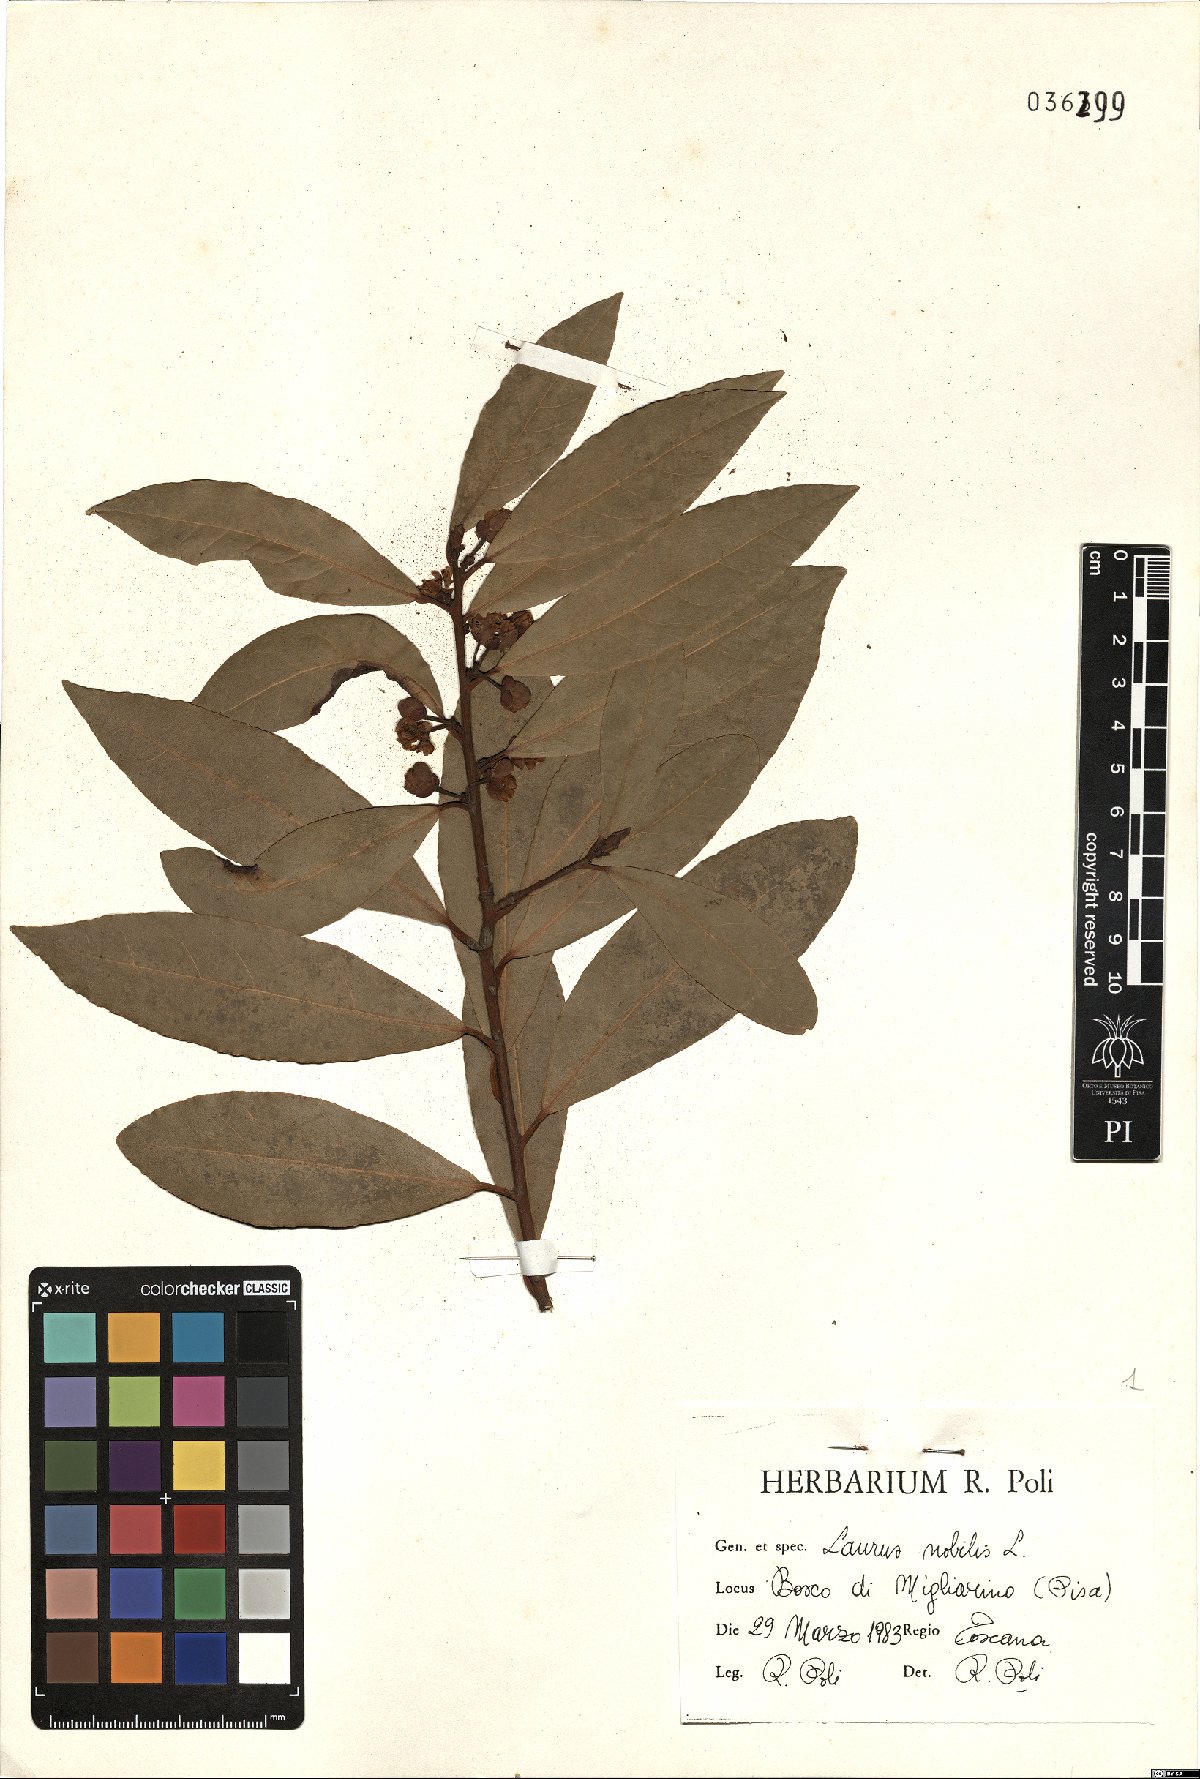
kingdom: Plantae
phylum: Tracheophyta
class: Magnoliopsida
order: Laurales
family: Lauraceae
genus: Laurus
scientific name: Laurus nobilis
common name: Bay
